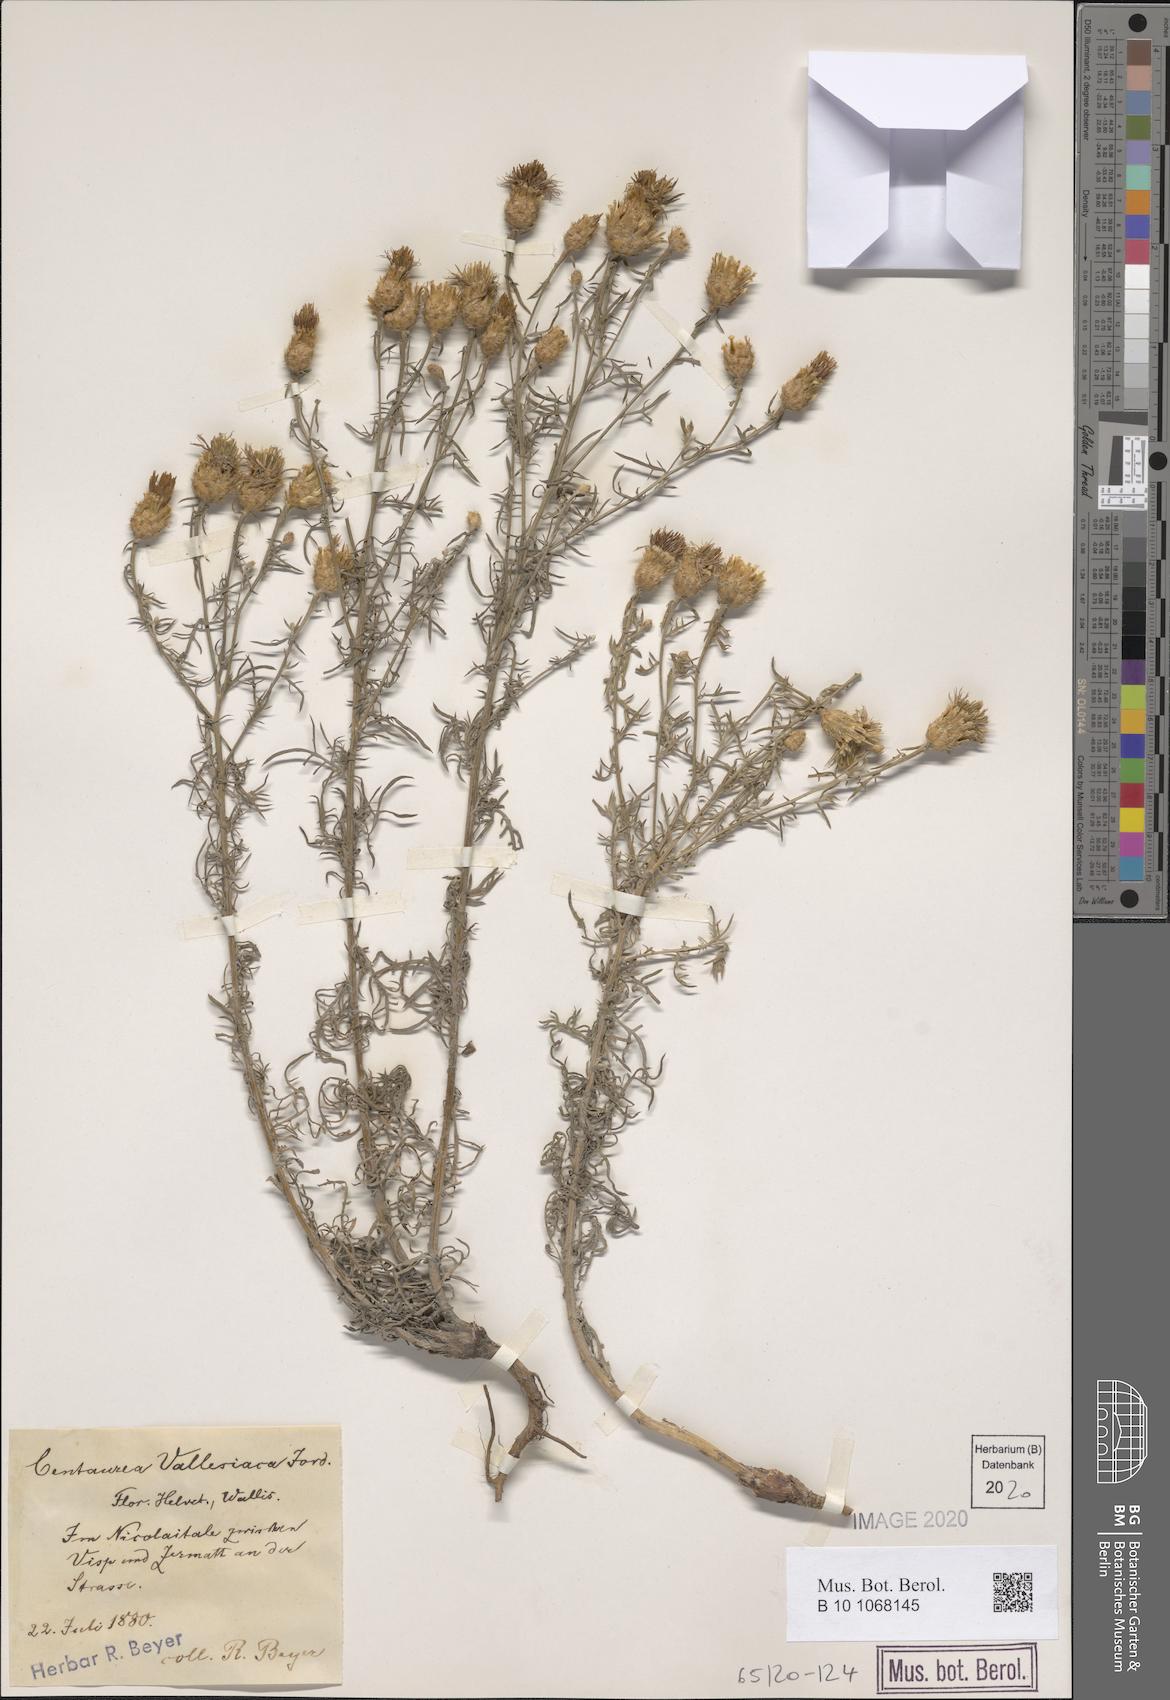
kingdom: Plantae
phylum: Tracheophyta
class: Magnoliopsida
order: Asterales
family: Asteraceae
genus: Centaurea
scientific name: Centaurea valesiaca
